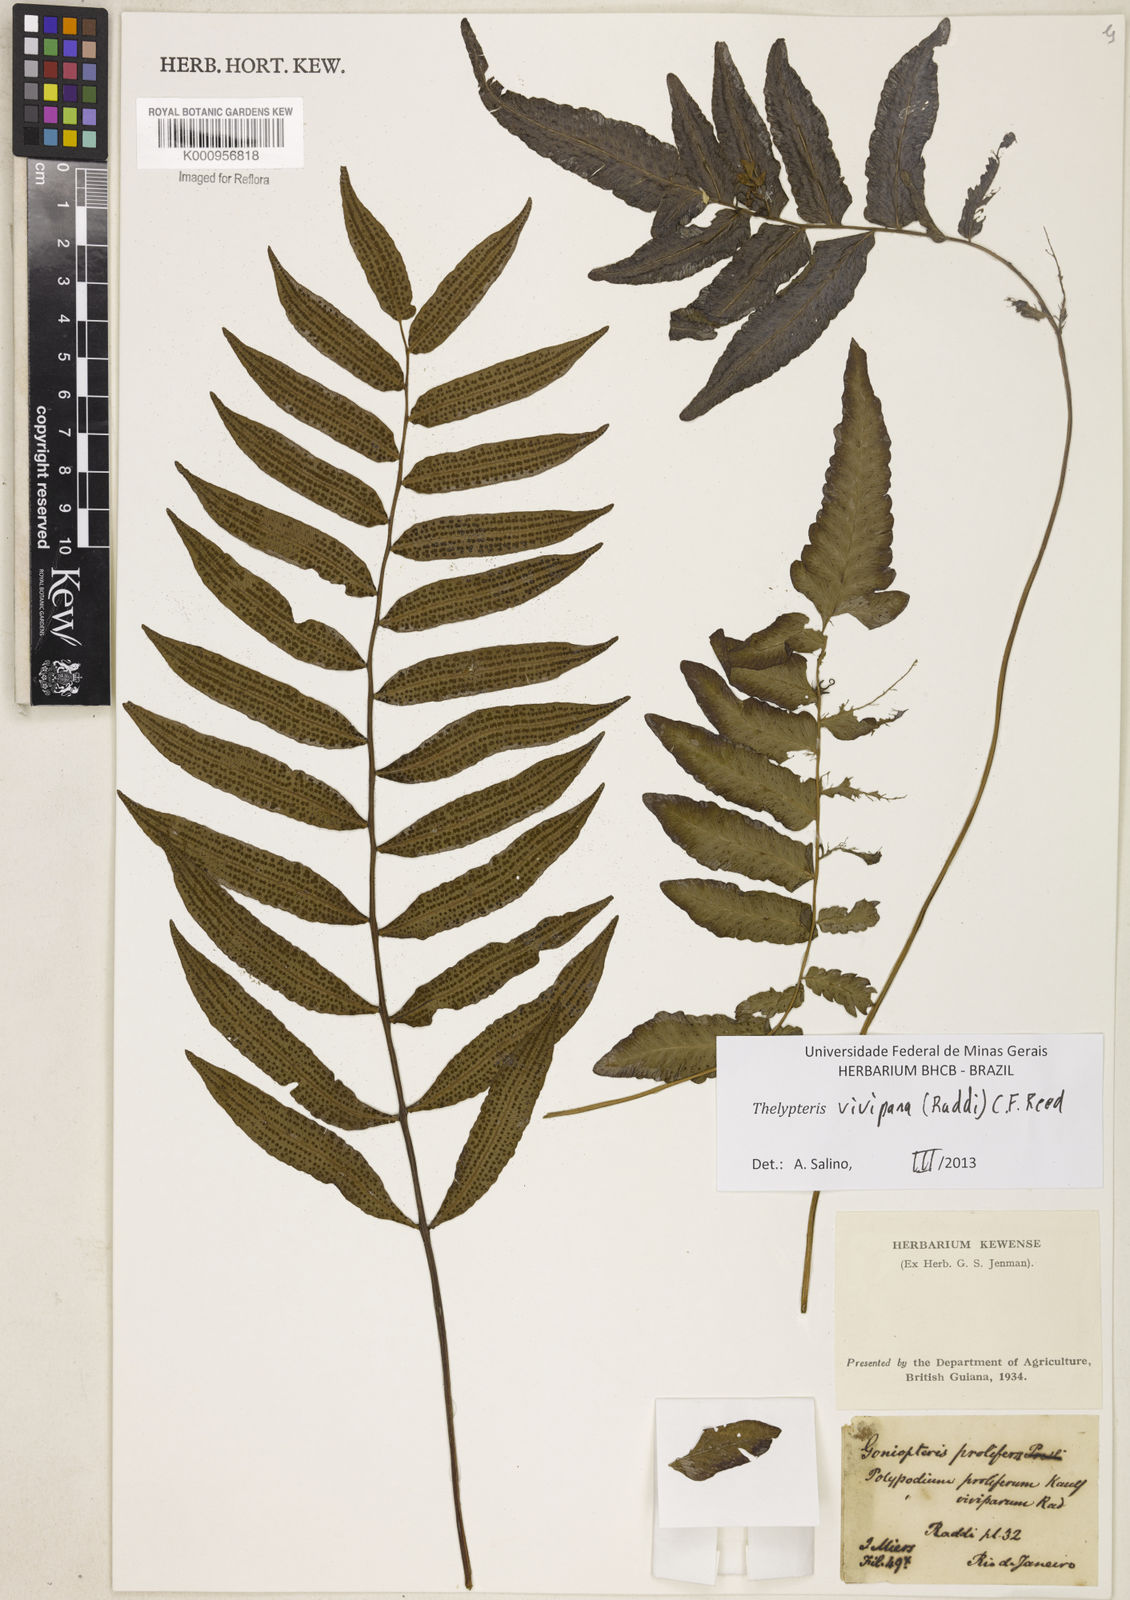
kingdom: Plantae
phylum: Tracheophyta
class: Polypodiopsida
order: Polypodiales
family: Thelypteridaceae
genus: Goniopteris
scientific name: Goniopteris vivipara
